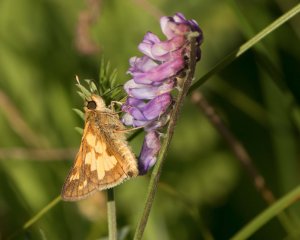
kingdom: Animalia
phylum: Arthropoda
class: Insecta
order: Lepidoptera
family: Hesperiidae
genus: Polites
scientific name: Polites coras
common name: Peck's Skipper
